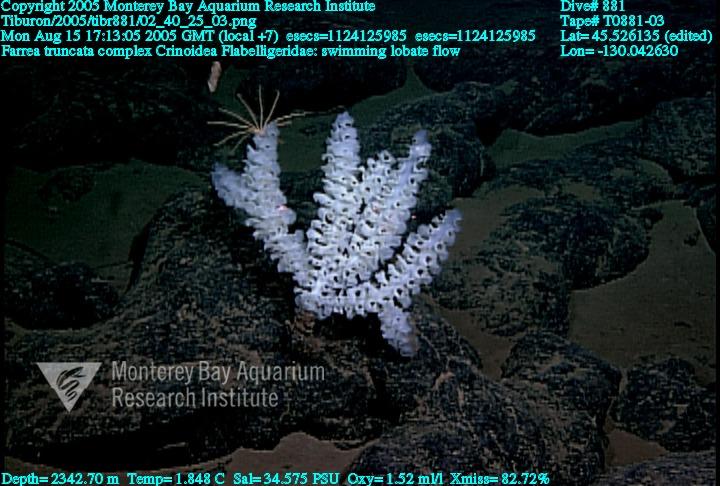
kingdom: Animalia
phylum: Porifera
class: Hexactinellida
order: Sceptrulophora
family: Farreidae
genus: Farrea
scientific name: Farrea truncata
